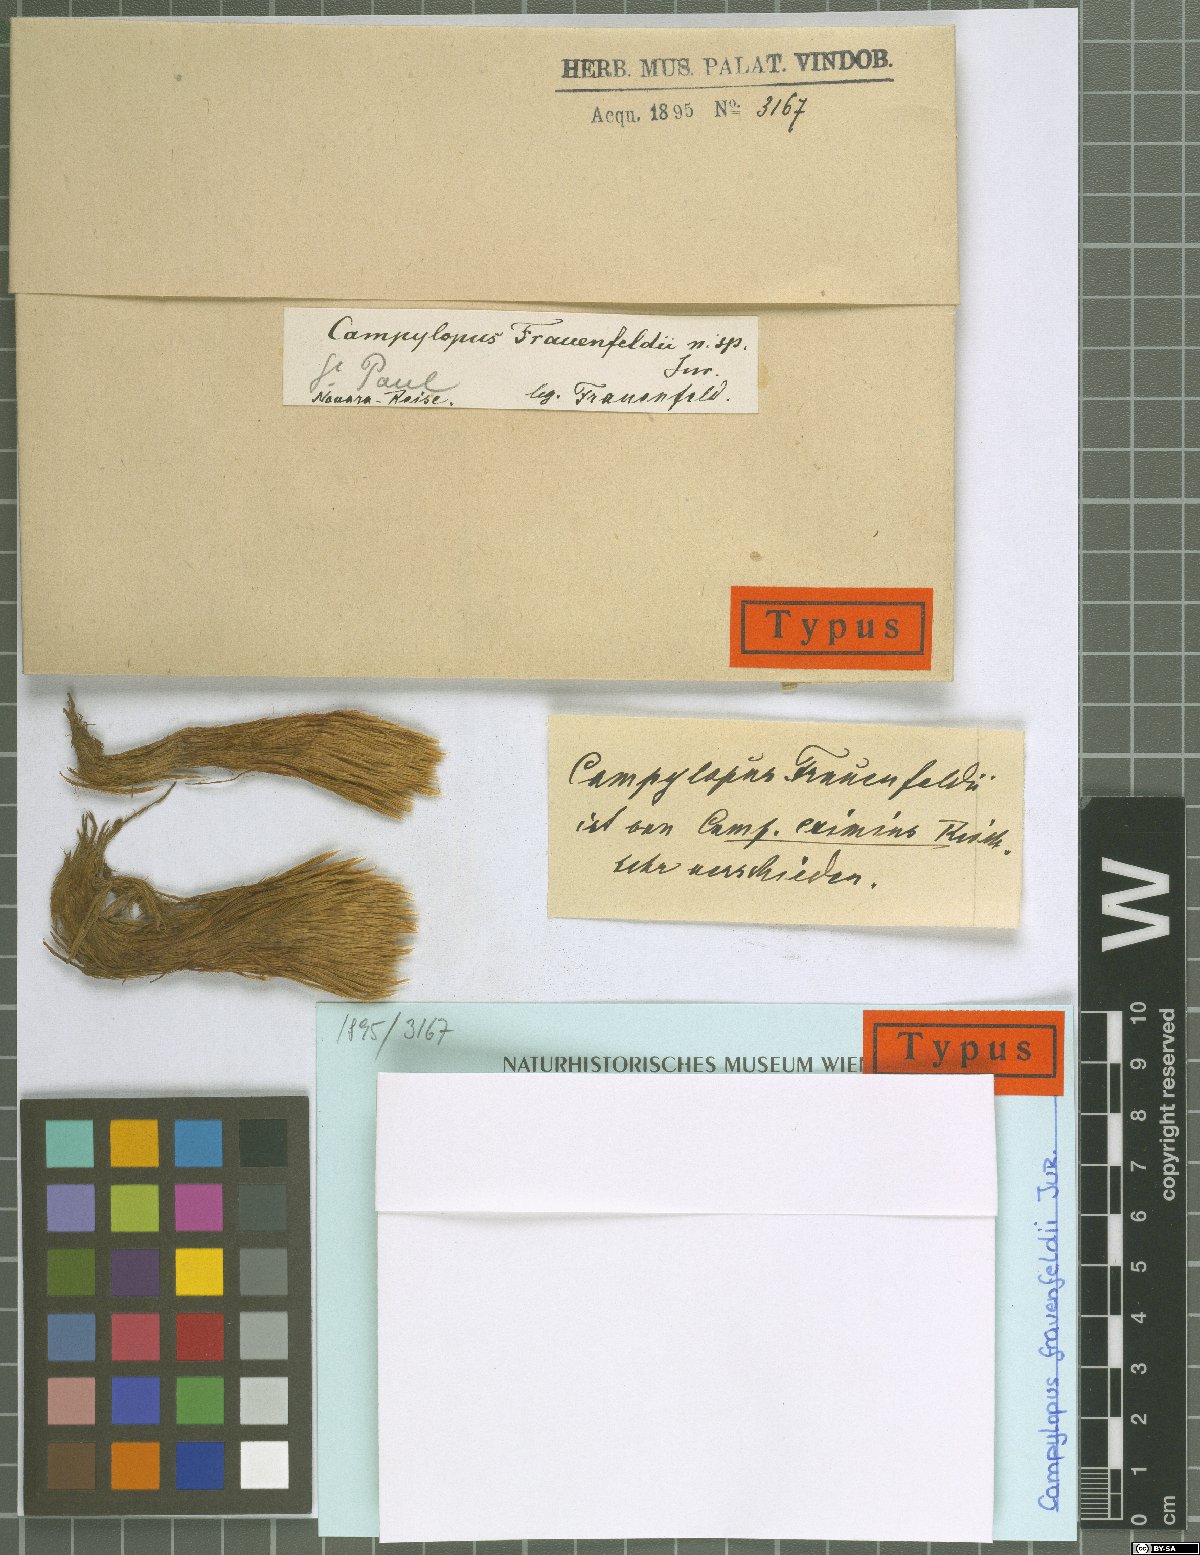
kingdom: Protozoa
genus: Campylopus
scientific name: Campylopus
